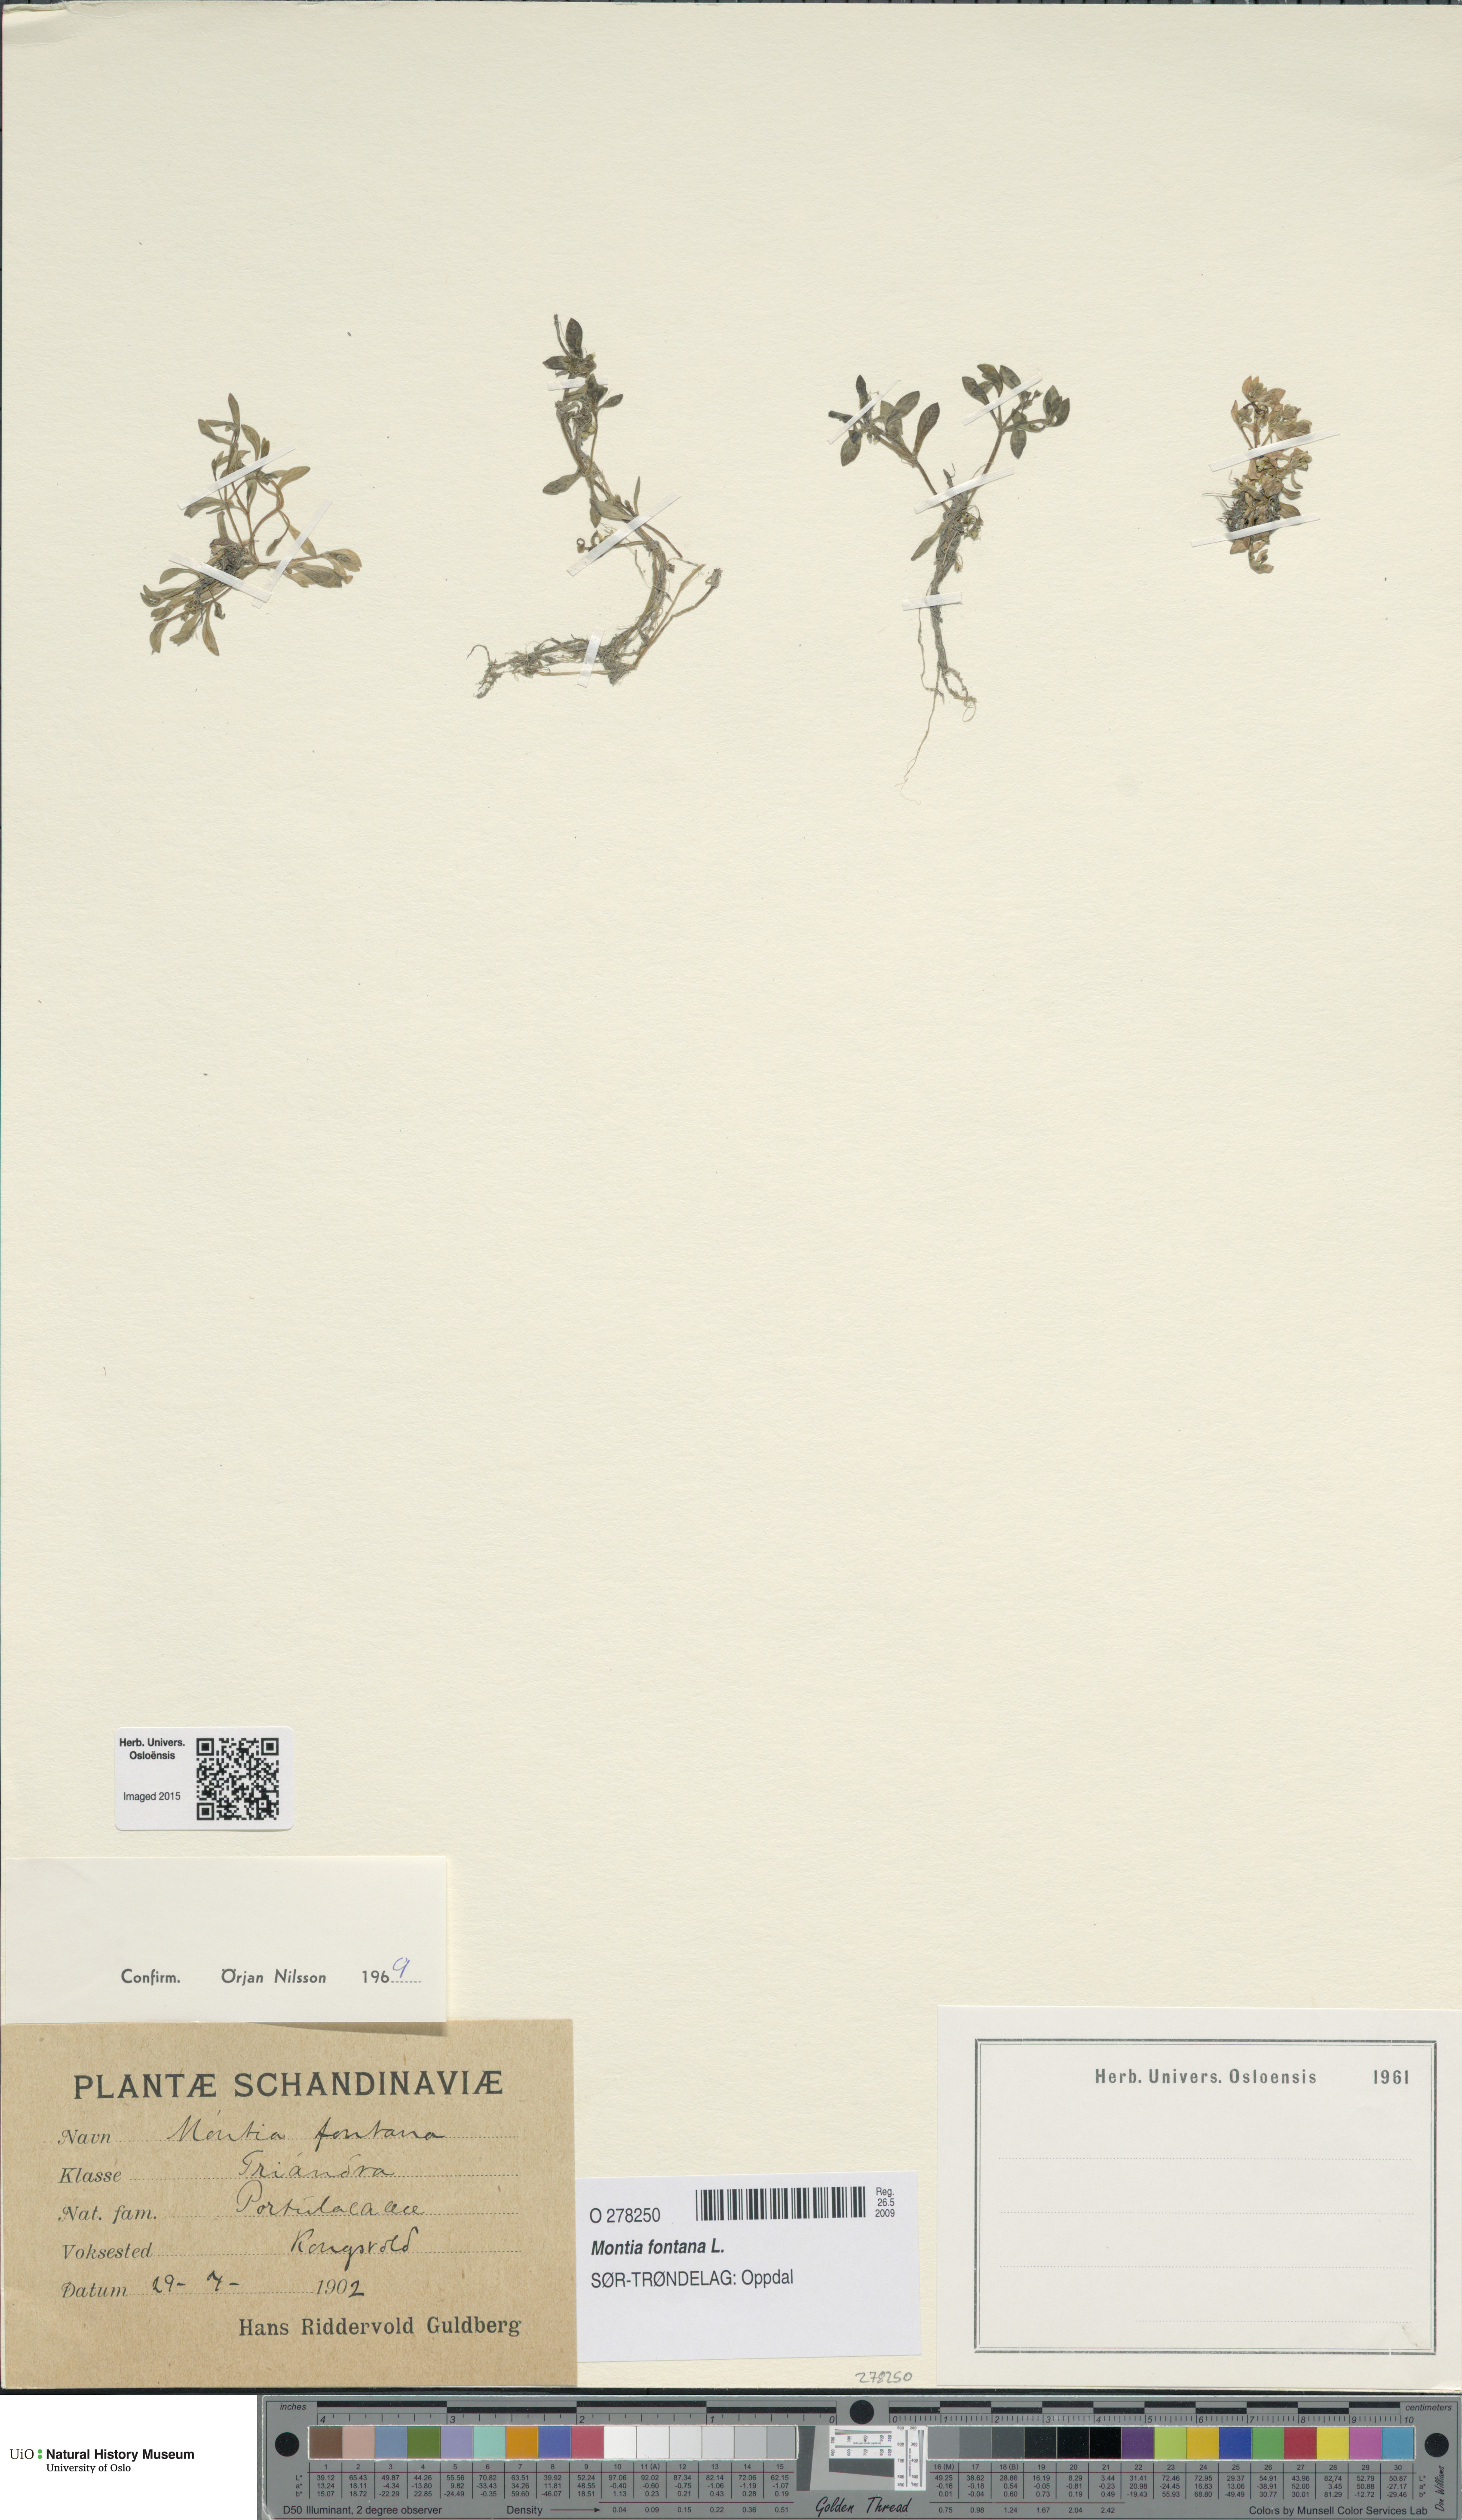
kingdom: Plantae
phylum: Tracheophyta
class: Magnoliopsida
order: Caryophyllales
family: Montiaceae
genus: Montia
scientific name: Montia fontana
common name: Blinks
